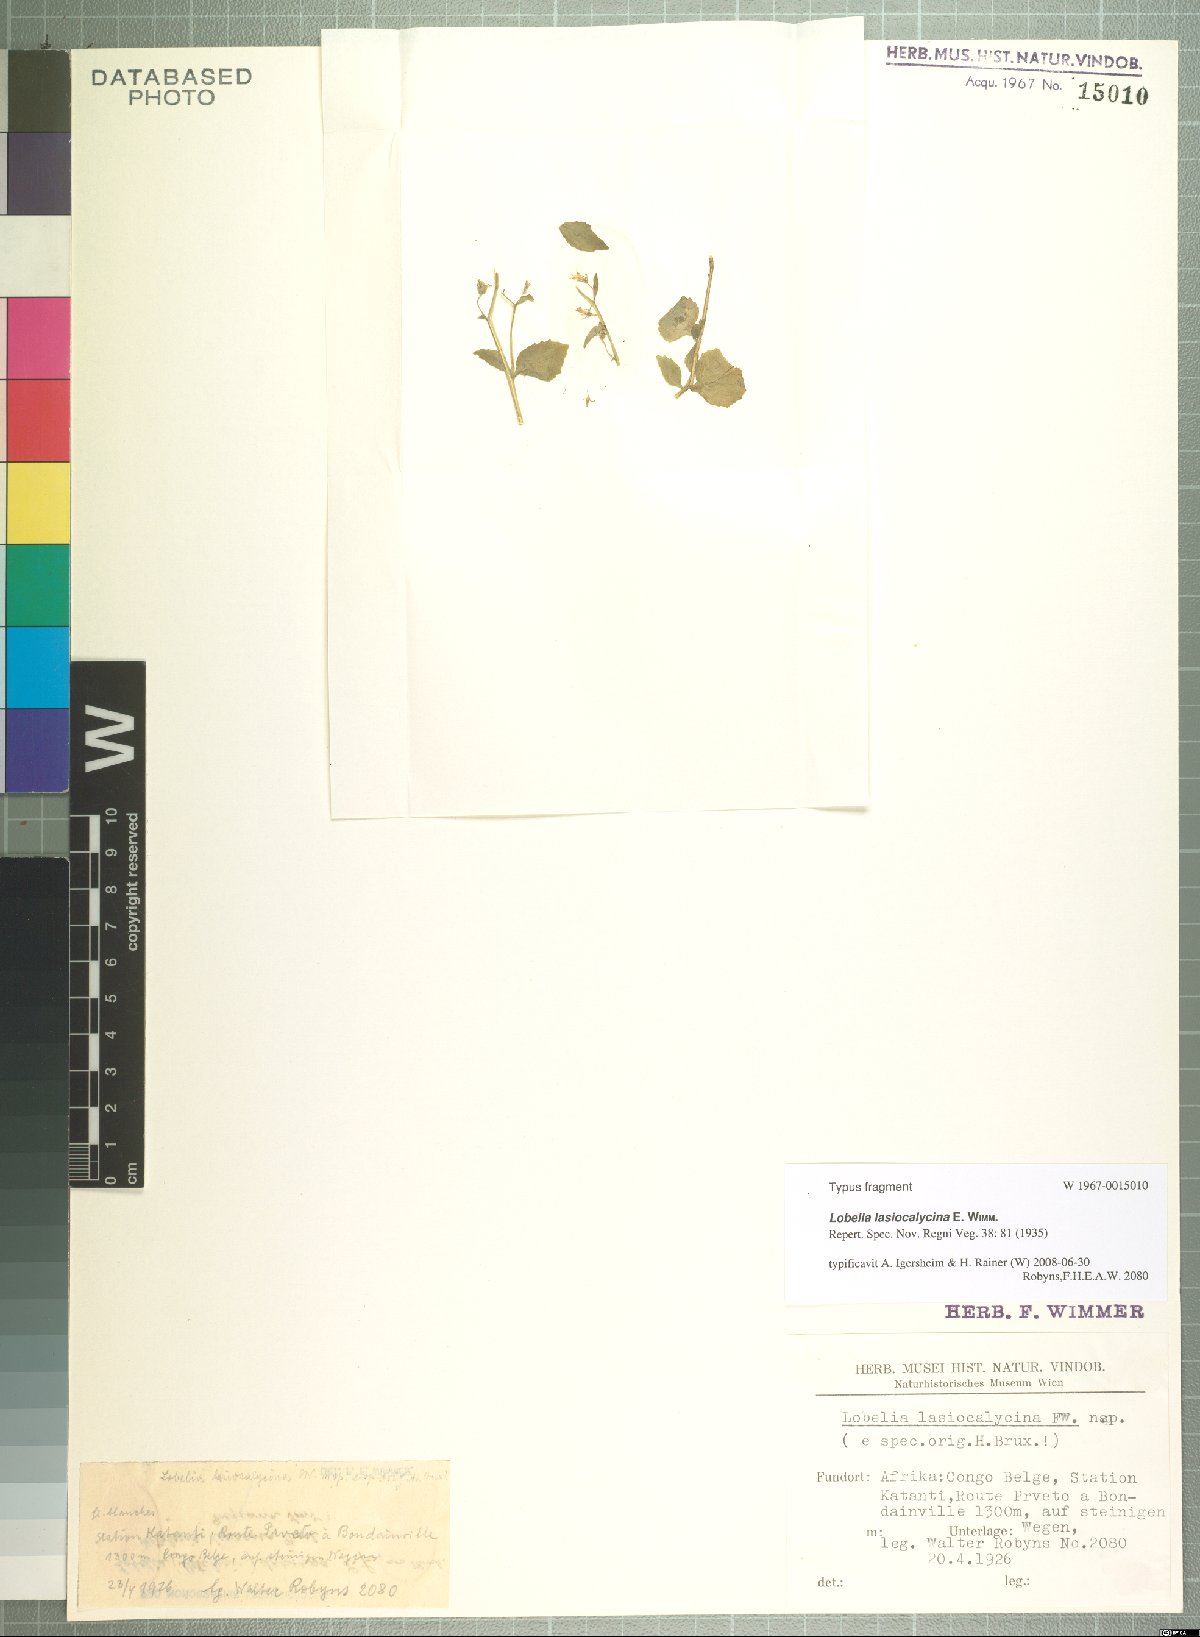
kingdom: Plantae
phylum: Tracheophyta
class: Magnoliopsida
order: Asterales
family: Campanulaceae
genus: Lobelia
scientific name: Lobelia lasiocalycina
